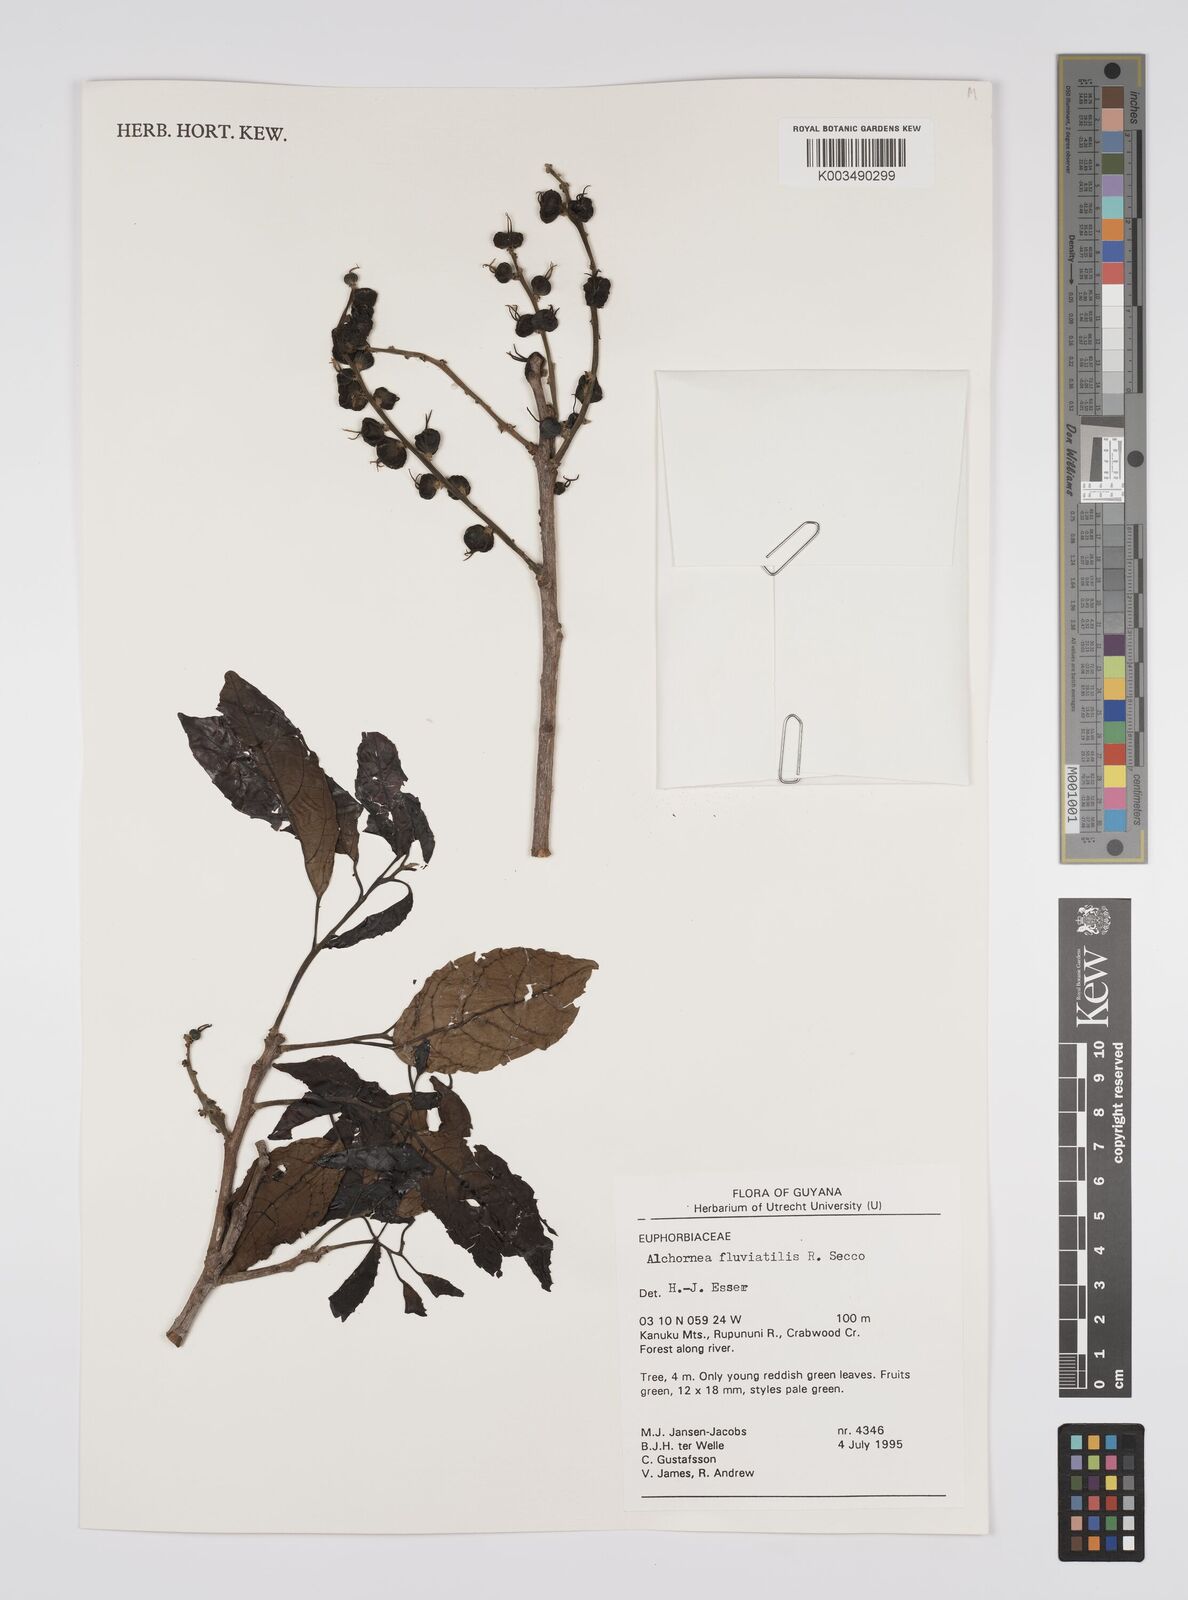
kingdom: Plantae
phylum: Tracheophyta
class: Magnoliopsida
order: Malpighiales
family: Euphorbiaceae
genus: Alchornea
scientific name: Alchornea fluviatilis
